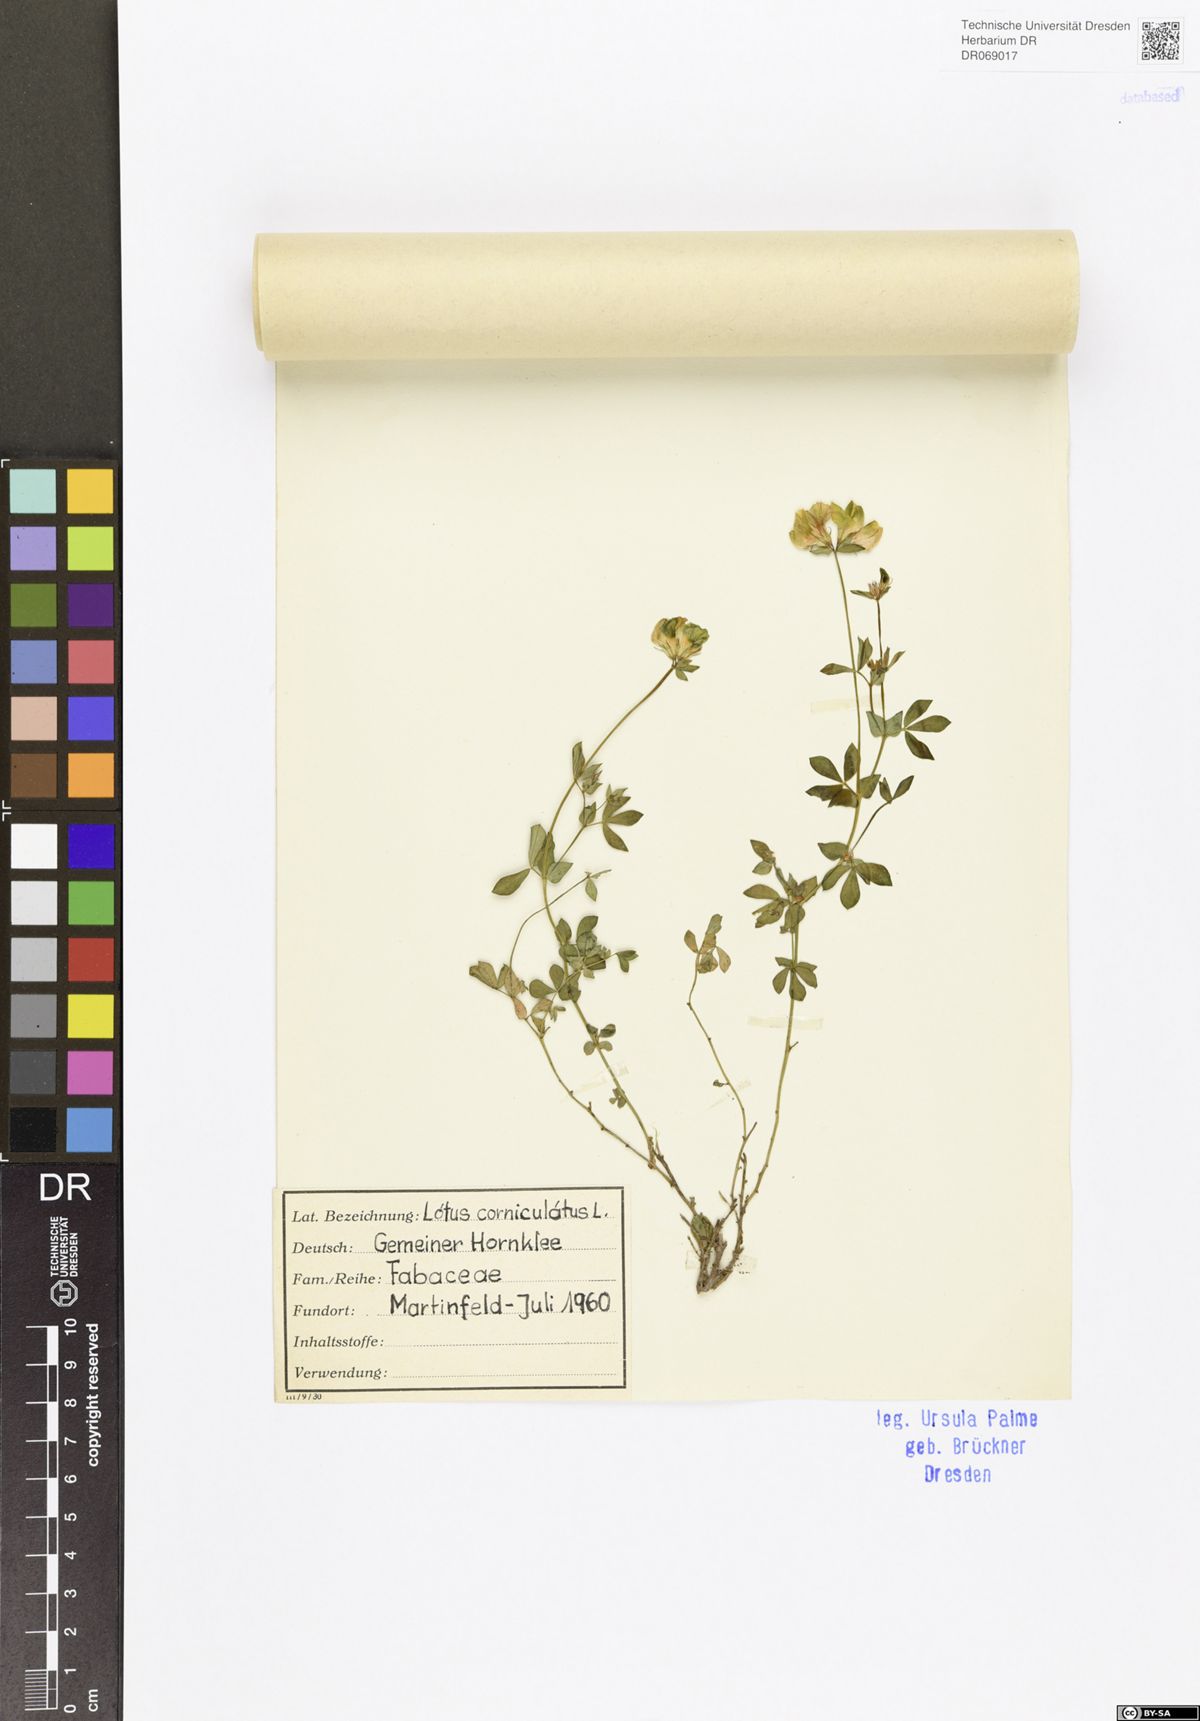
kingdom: Plantae
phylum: Tracheophyta
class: Magnoliopsida
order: Fabales
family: Fabaceae
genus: Lotus
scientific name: Lotus corniculatus
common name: Common bird's-foot-trefoil
